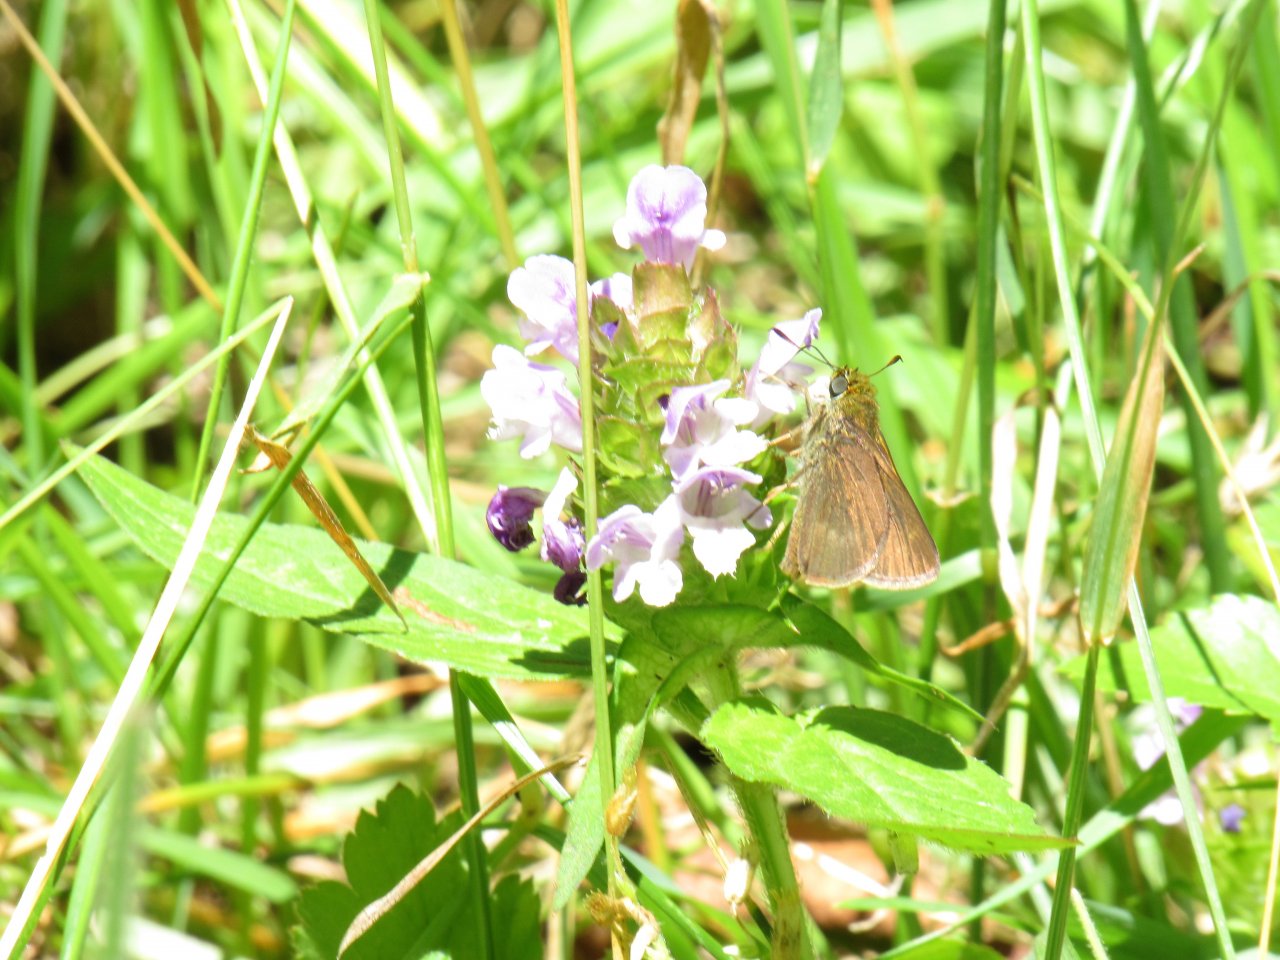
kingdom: Animalia
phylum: Arthropoda
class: Insecta
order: Lepidoptera
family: Hesperiidae
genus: Euphyes
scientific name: Euphyes
